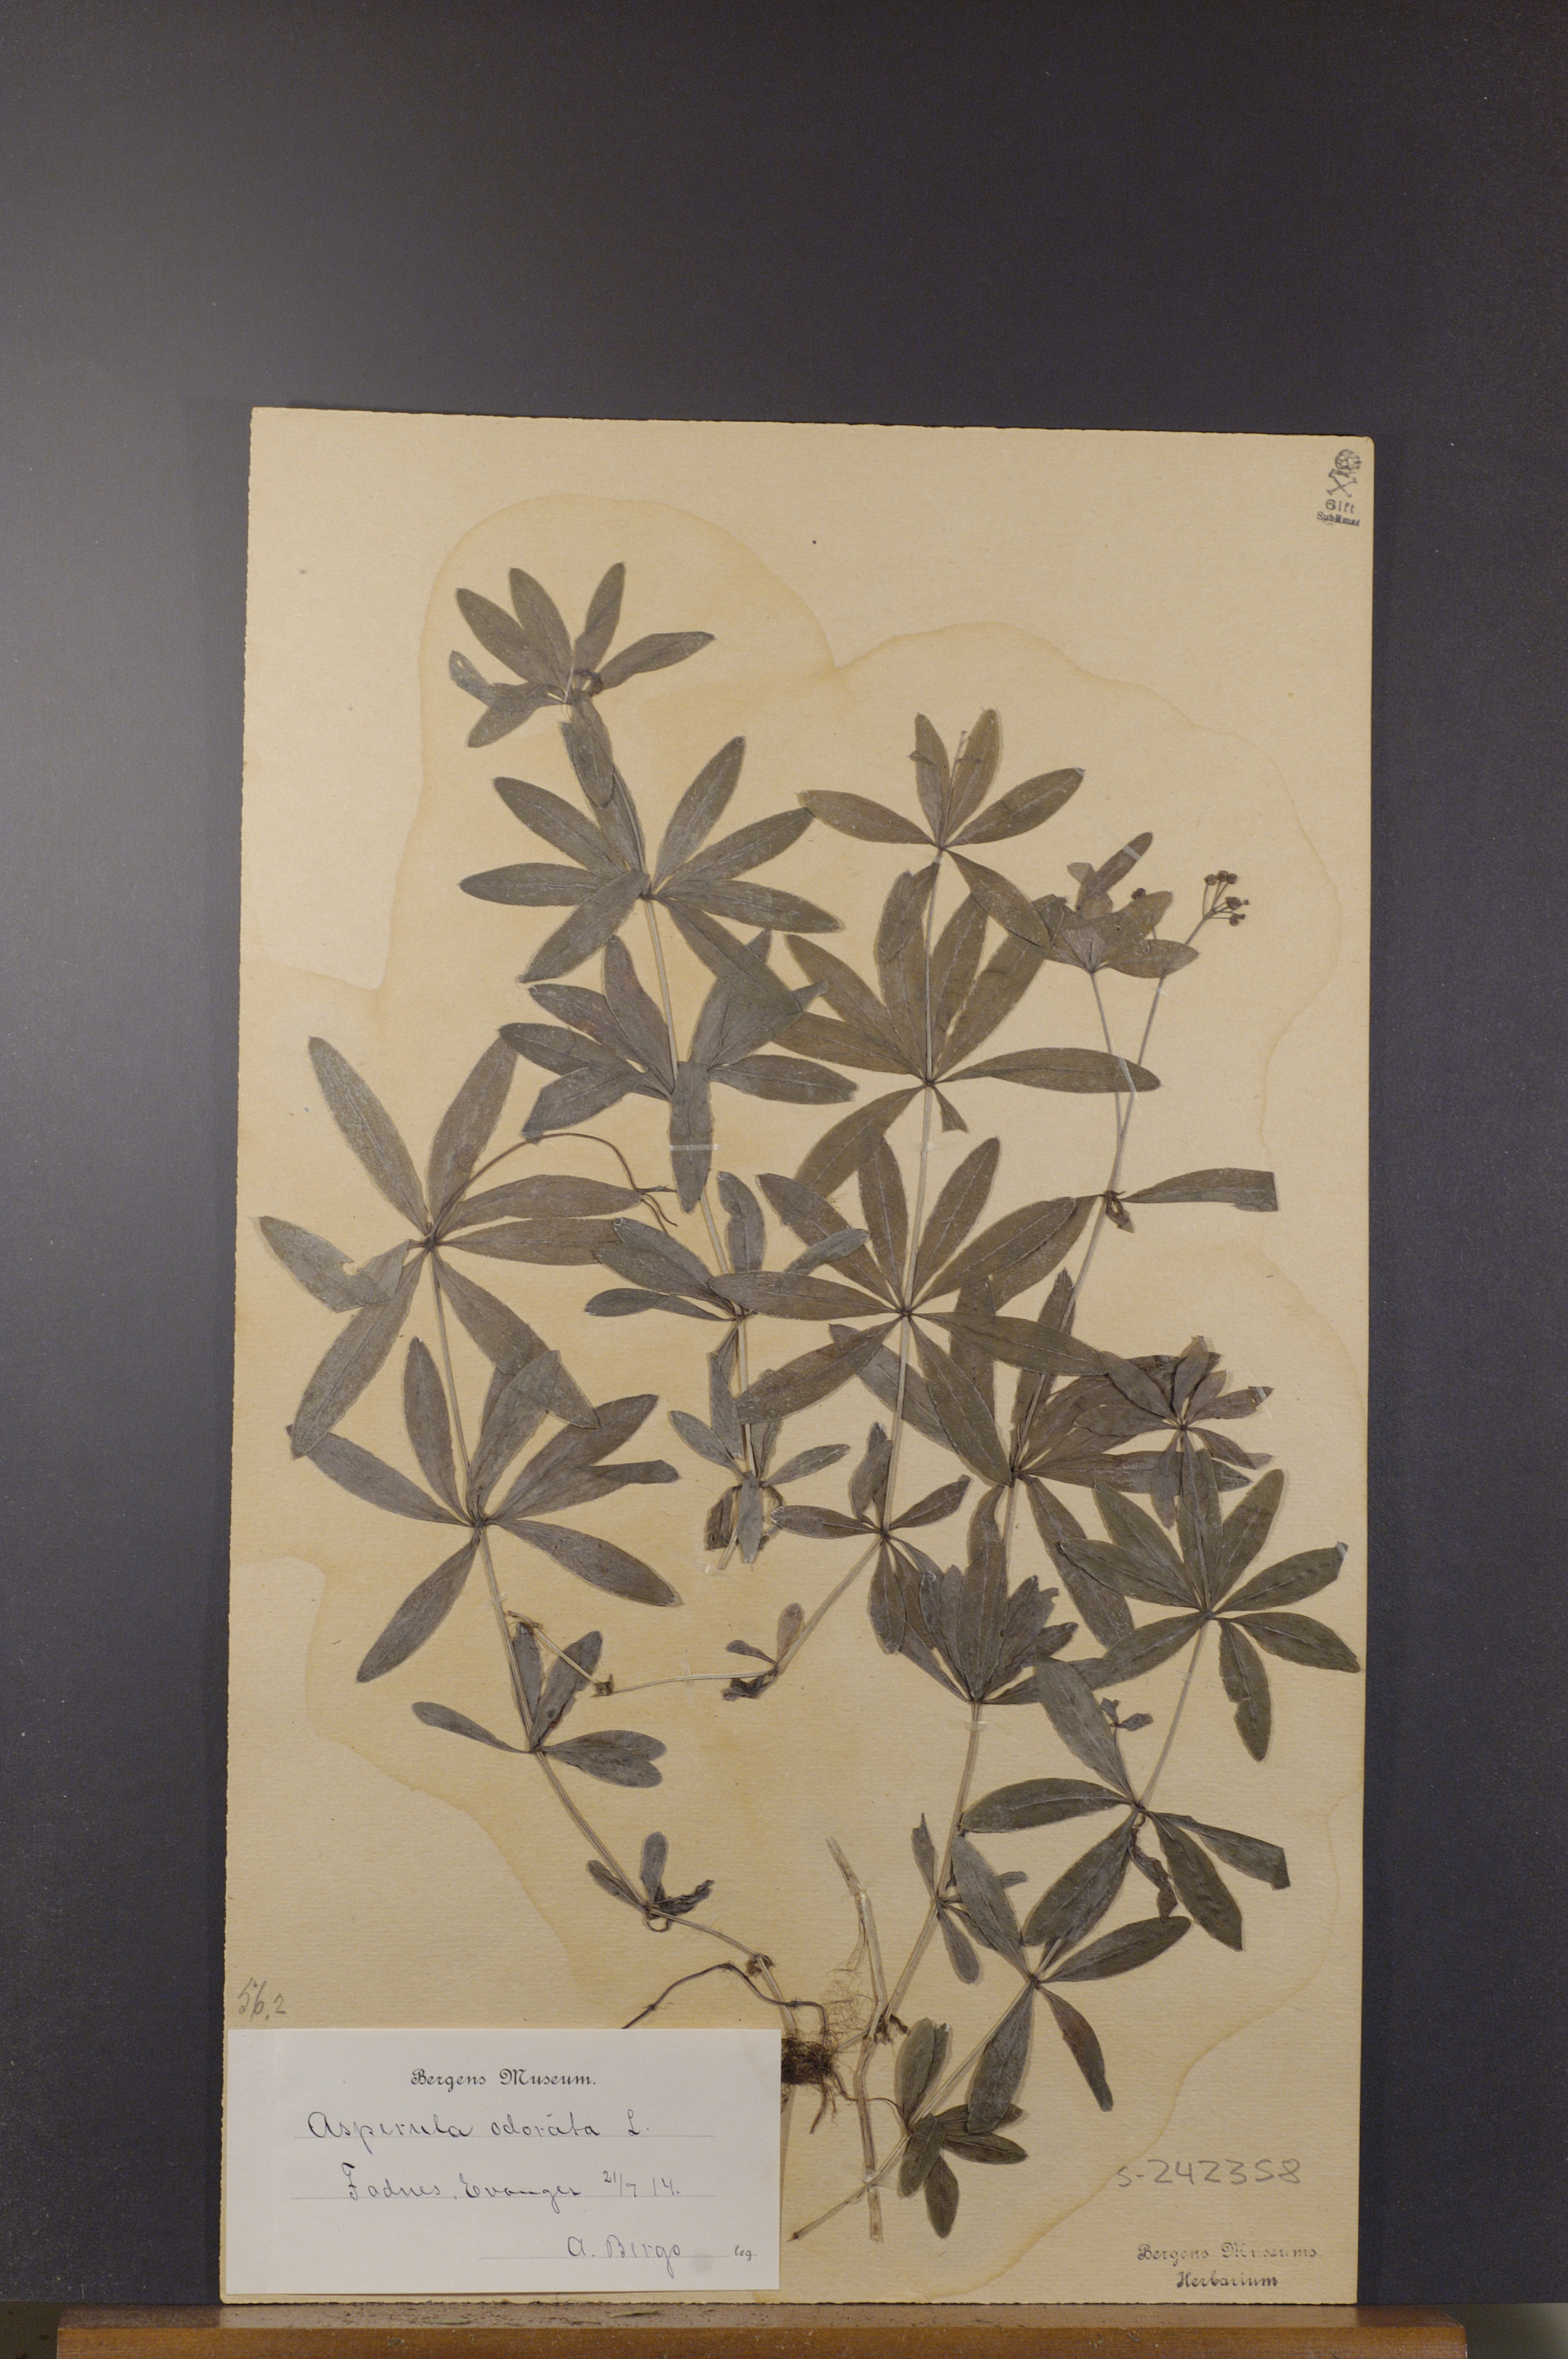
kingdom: Plantae
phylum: Tracheophyta
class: Magnoliopsida
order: Gentianales
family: Rubiaceae
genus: Galium
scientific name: Galium odoratum
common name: Sweet woodruff
